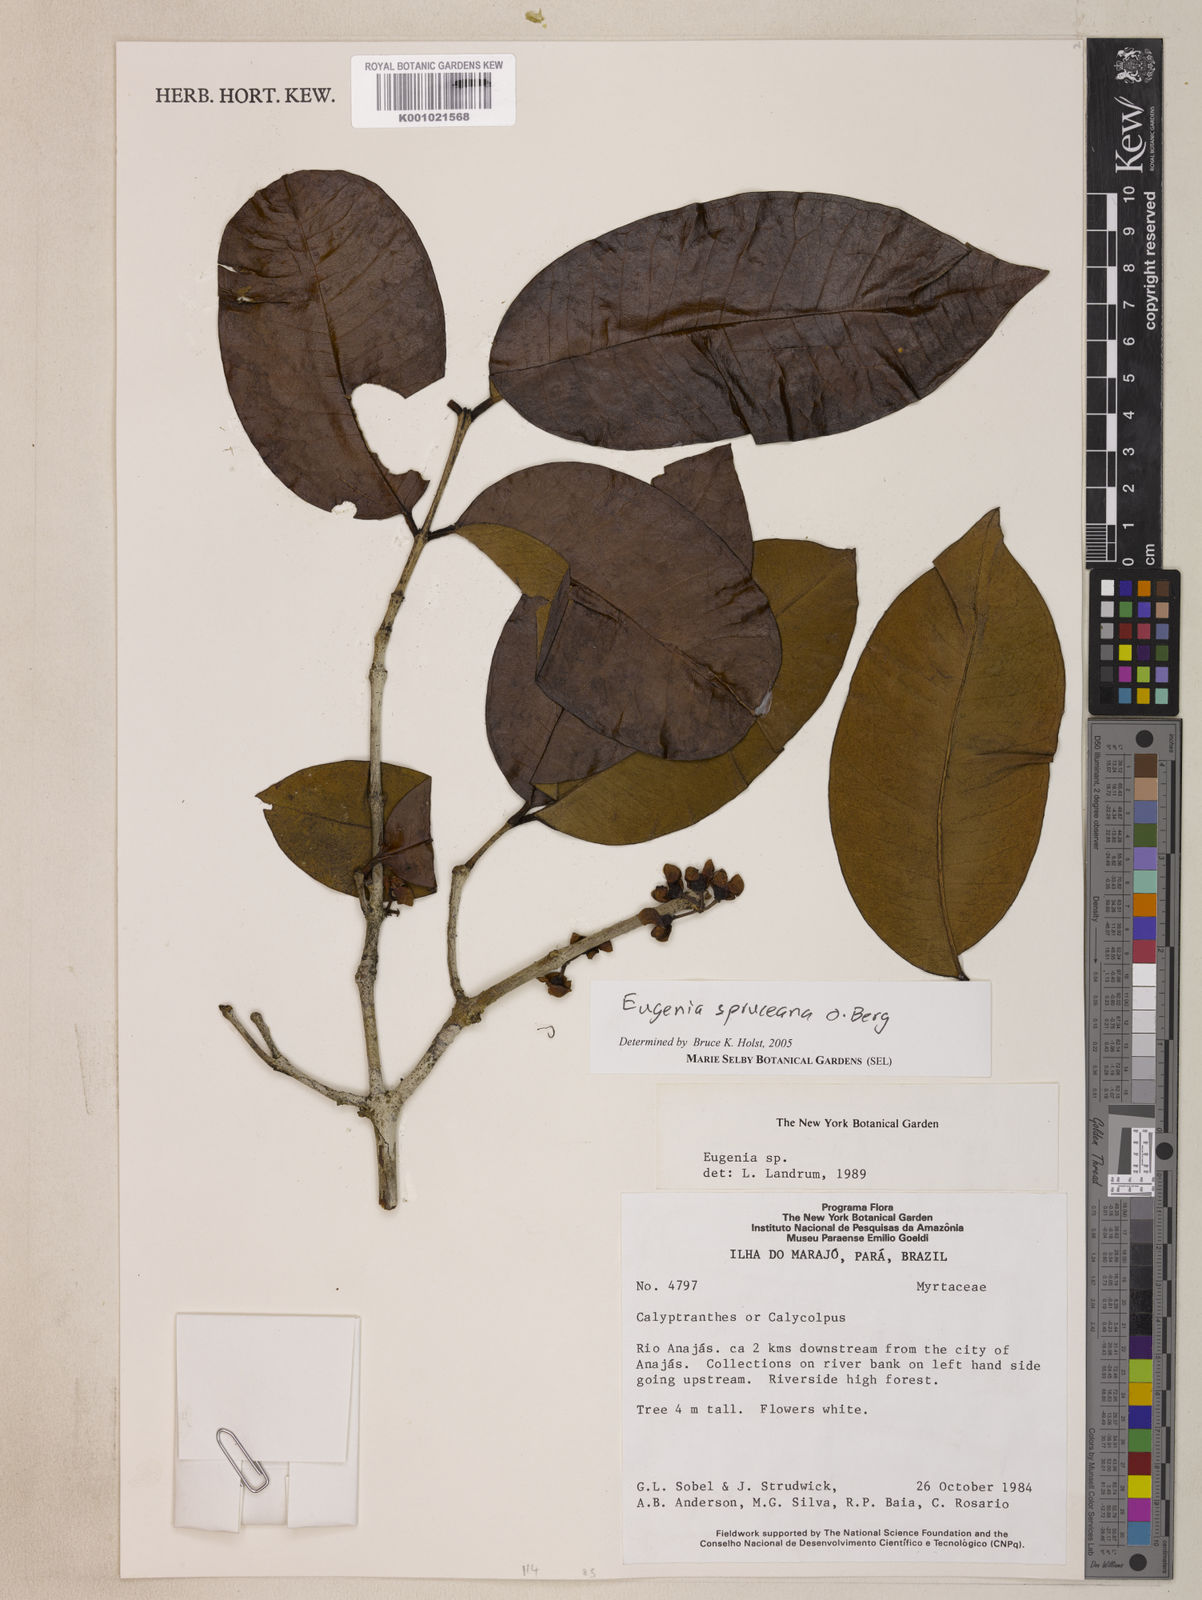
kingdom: Plantae
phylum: Tracheophyta
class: Magnoliopsida
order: Myrtales
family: Myrtaceae
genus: Eugenia
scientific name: Eugenia spruceana
